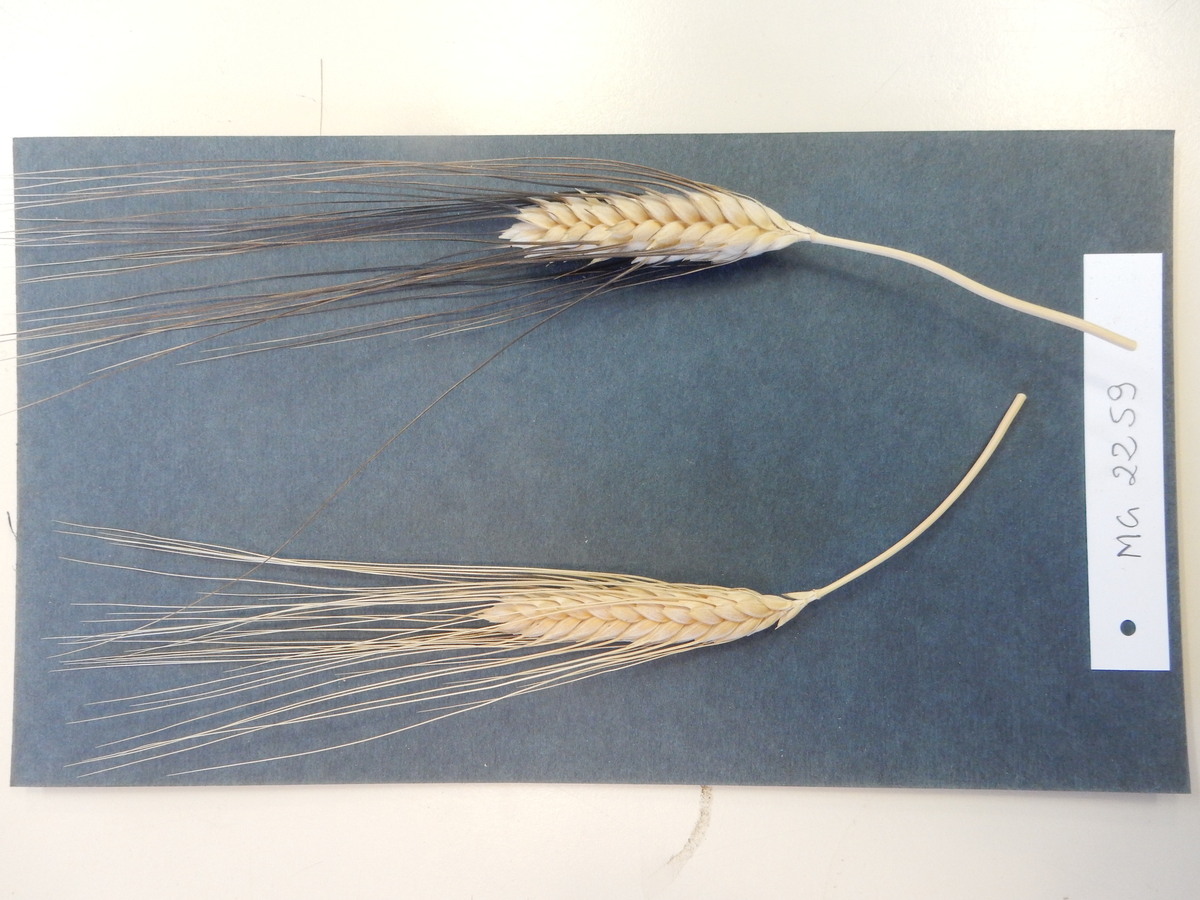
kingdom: Plantae
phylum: Tracheophyta
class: Liliopsida
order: Poales
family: Poaceae
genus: Triticum
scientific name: Triticum turgidum
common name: Wheat
